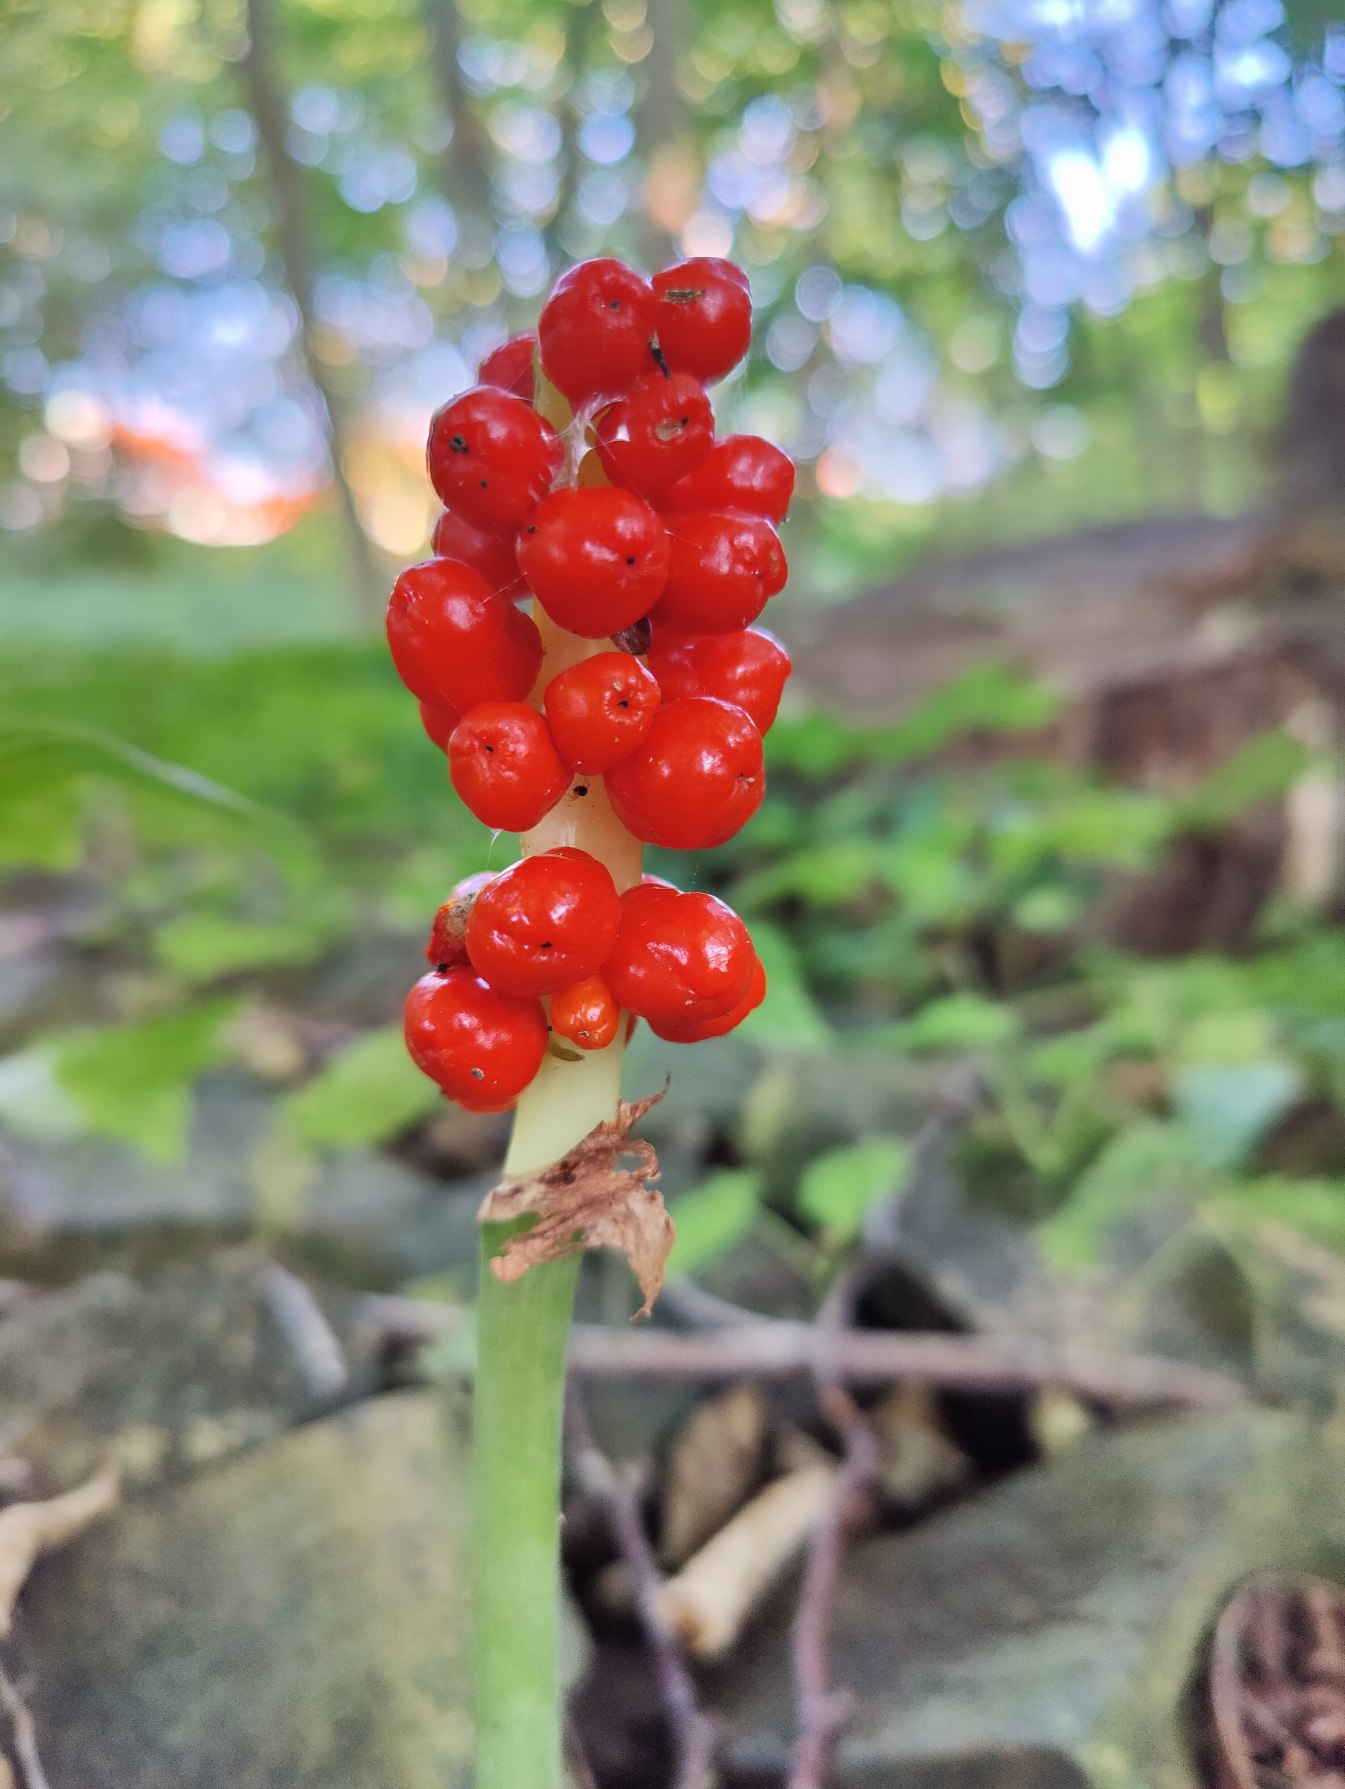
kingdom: Plantae
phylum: Tracheophyta
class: Liliopsida
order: Alismatales
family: Araceae
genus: Arum
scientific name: Arum
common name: Arumslægten
